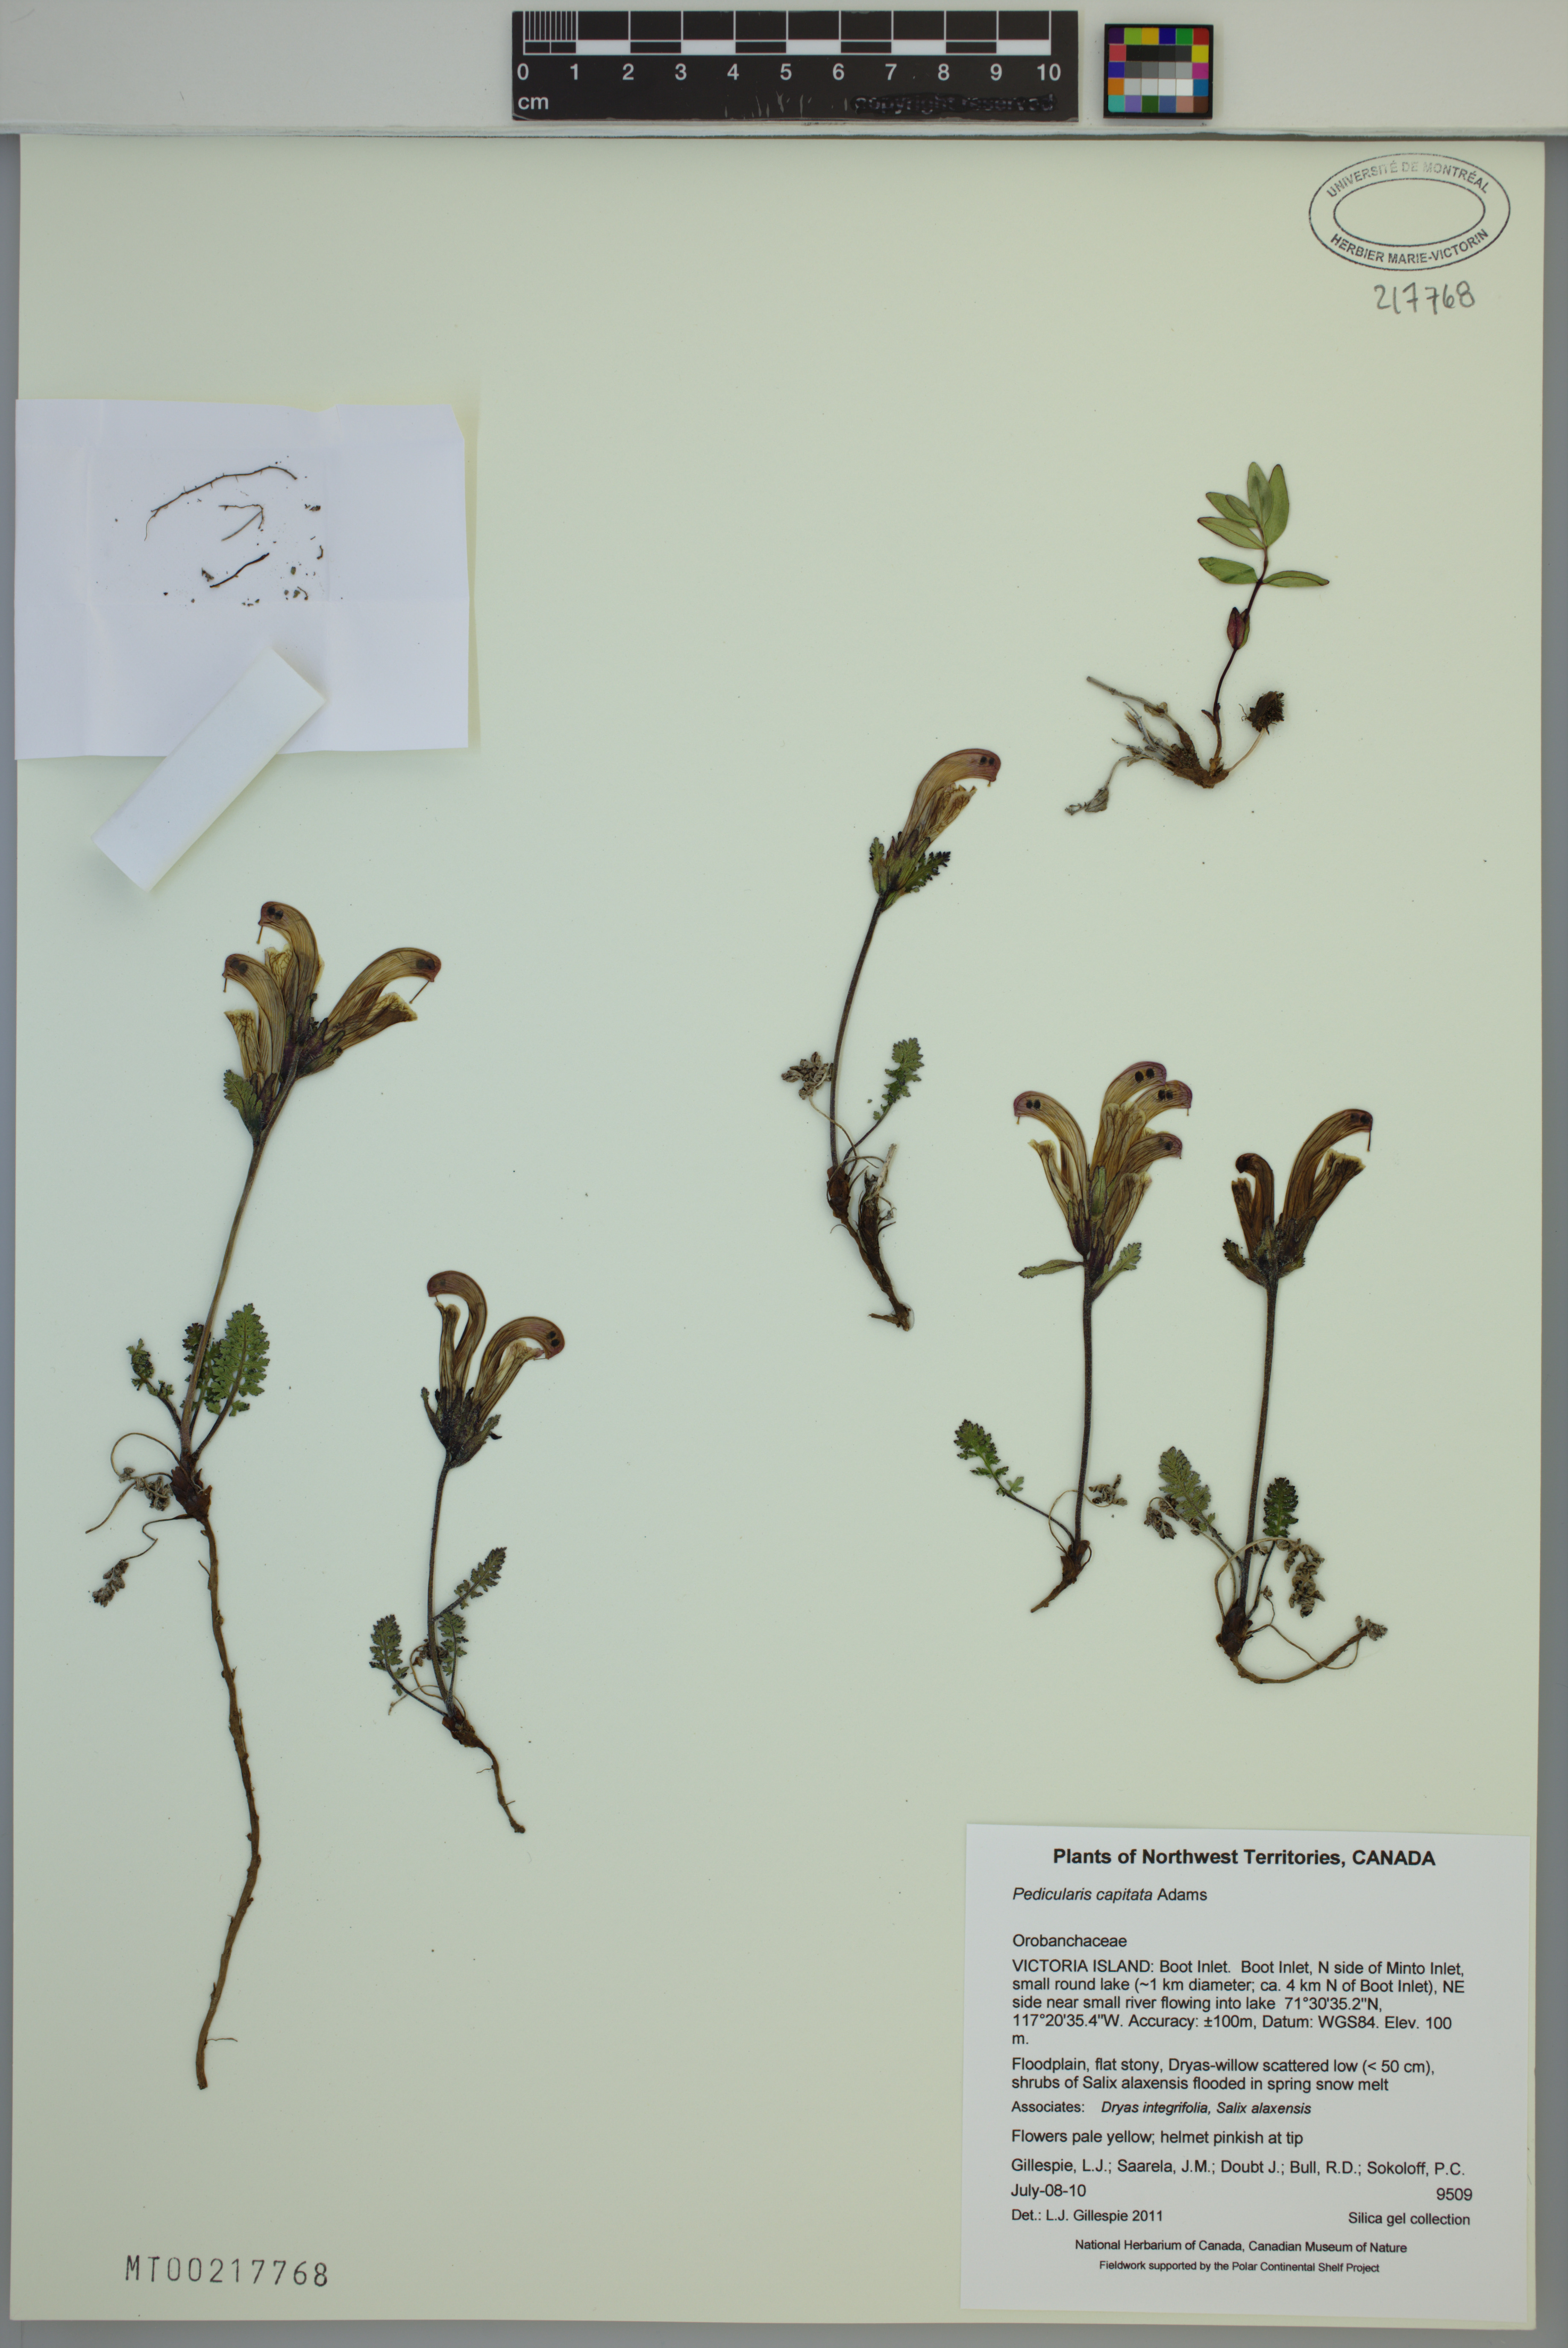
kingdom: Plantae
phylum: Tracheophyta
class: Magnoliopsida
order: Lamiales
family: Orobanchaceae
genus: Pedicularis
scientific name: Pedicularis capitata
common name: Capitate lousewort
